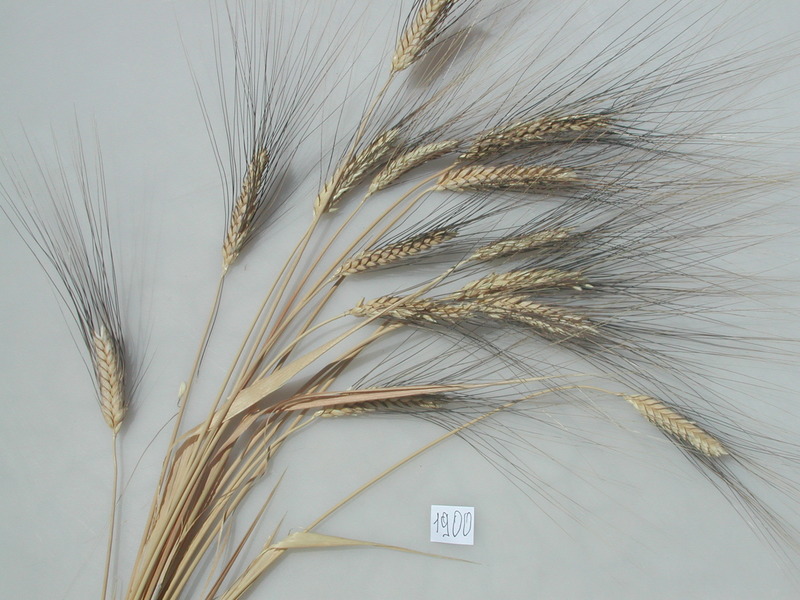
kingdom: Plantae
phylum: Tracheophyta
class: Liliopsida
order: Poales
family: Poaceae
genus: Triticum
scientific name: Triticum turgidum
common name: Wheat
